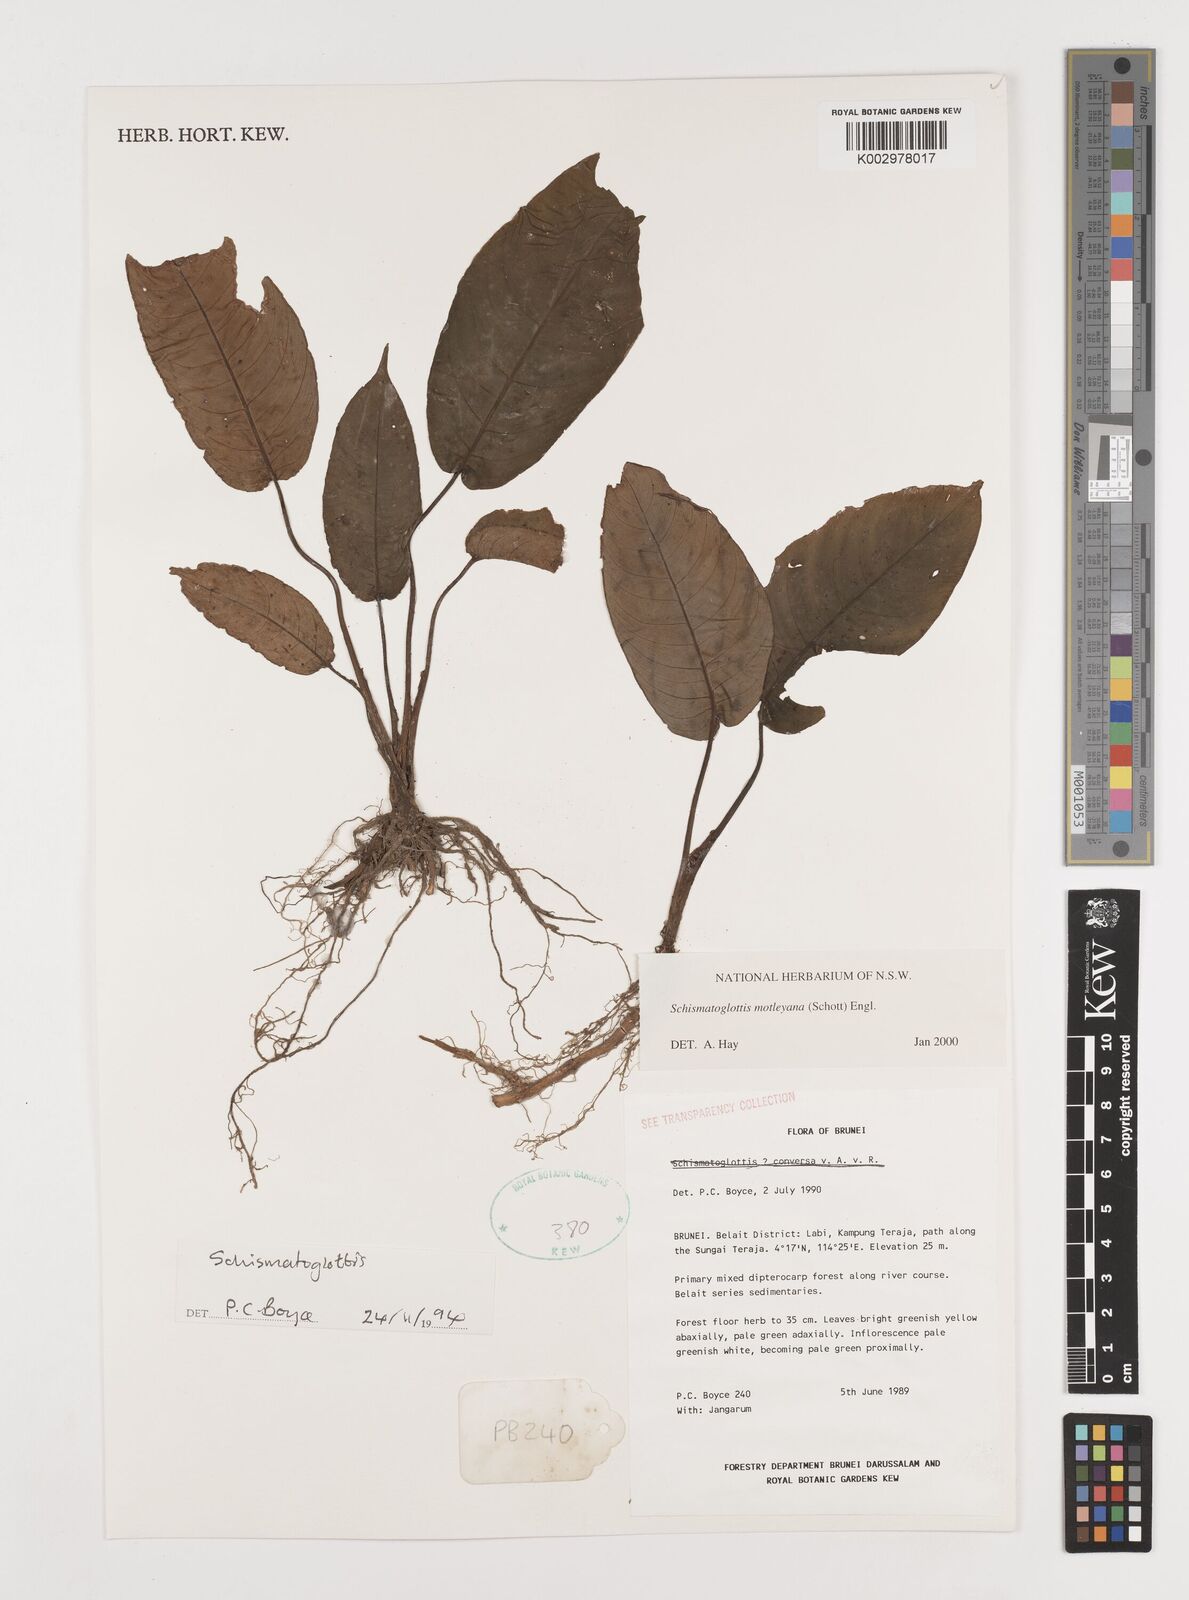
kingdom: Plantae
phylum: Tracheophyta
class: Liliopsida
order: Alismatales
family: Araceae
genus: Schismatoglottis
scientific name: Schismatoglottis motleyana
